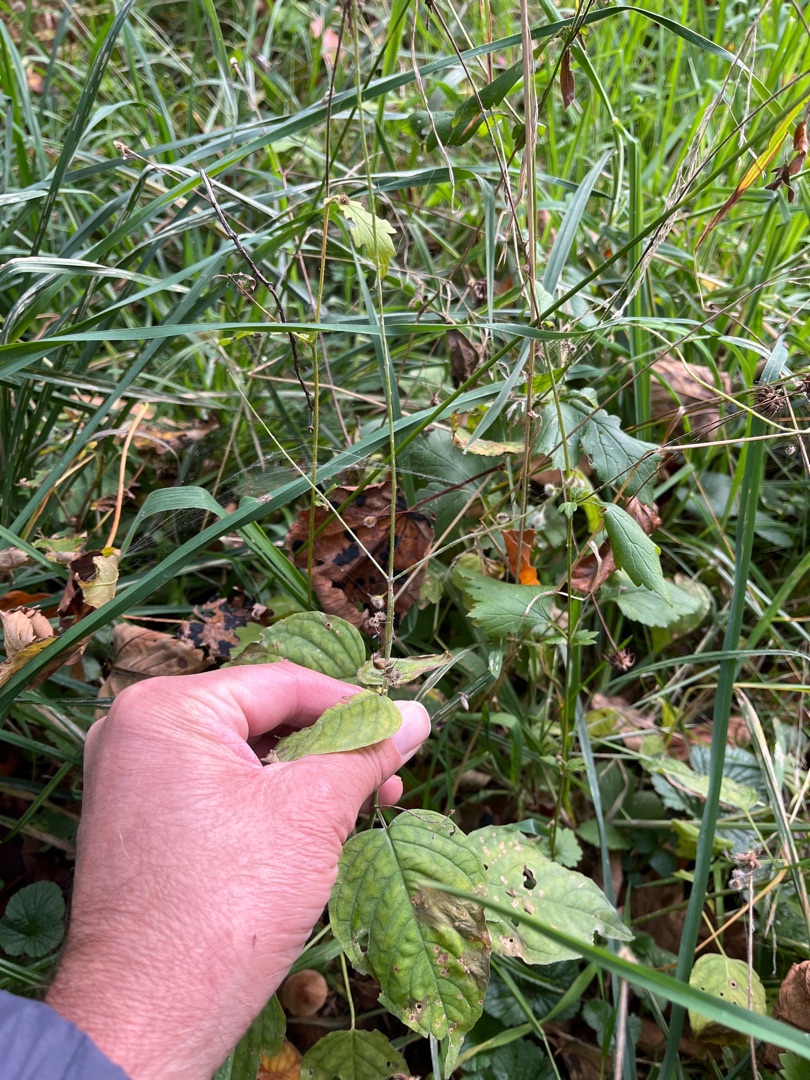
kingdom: Plantae
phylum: Tracheophyta
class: Magnoliopsida
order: Myrtales
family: Onagraceae
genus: Circaea
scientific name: Circaea lutetiana
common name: Dunet steffensurt
